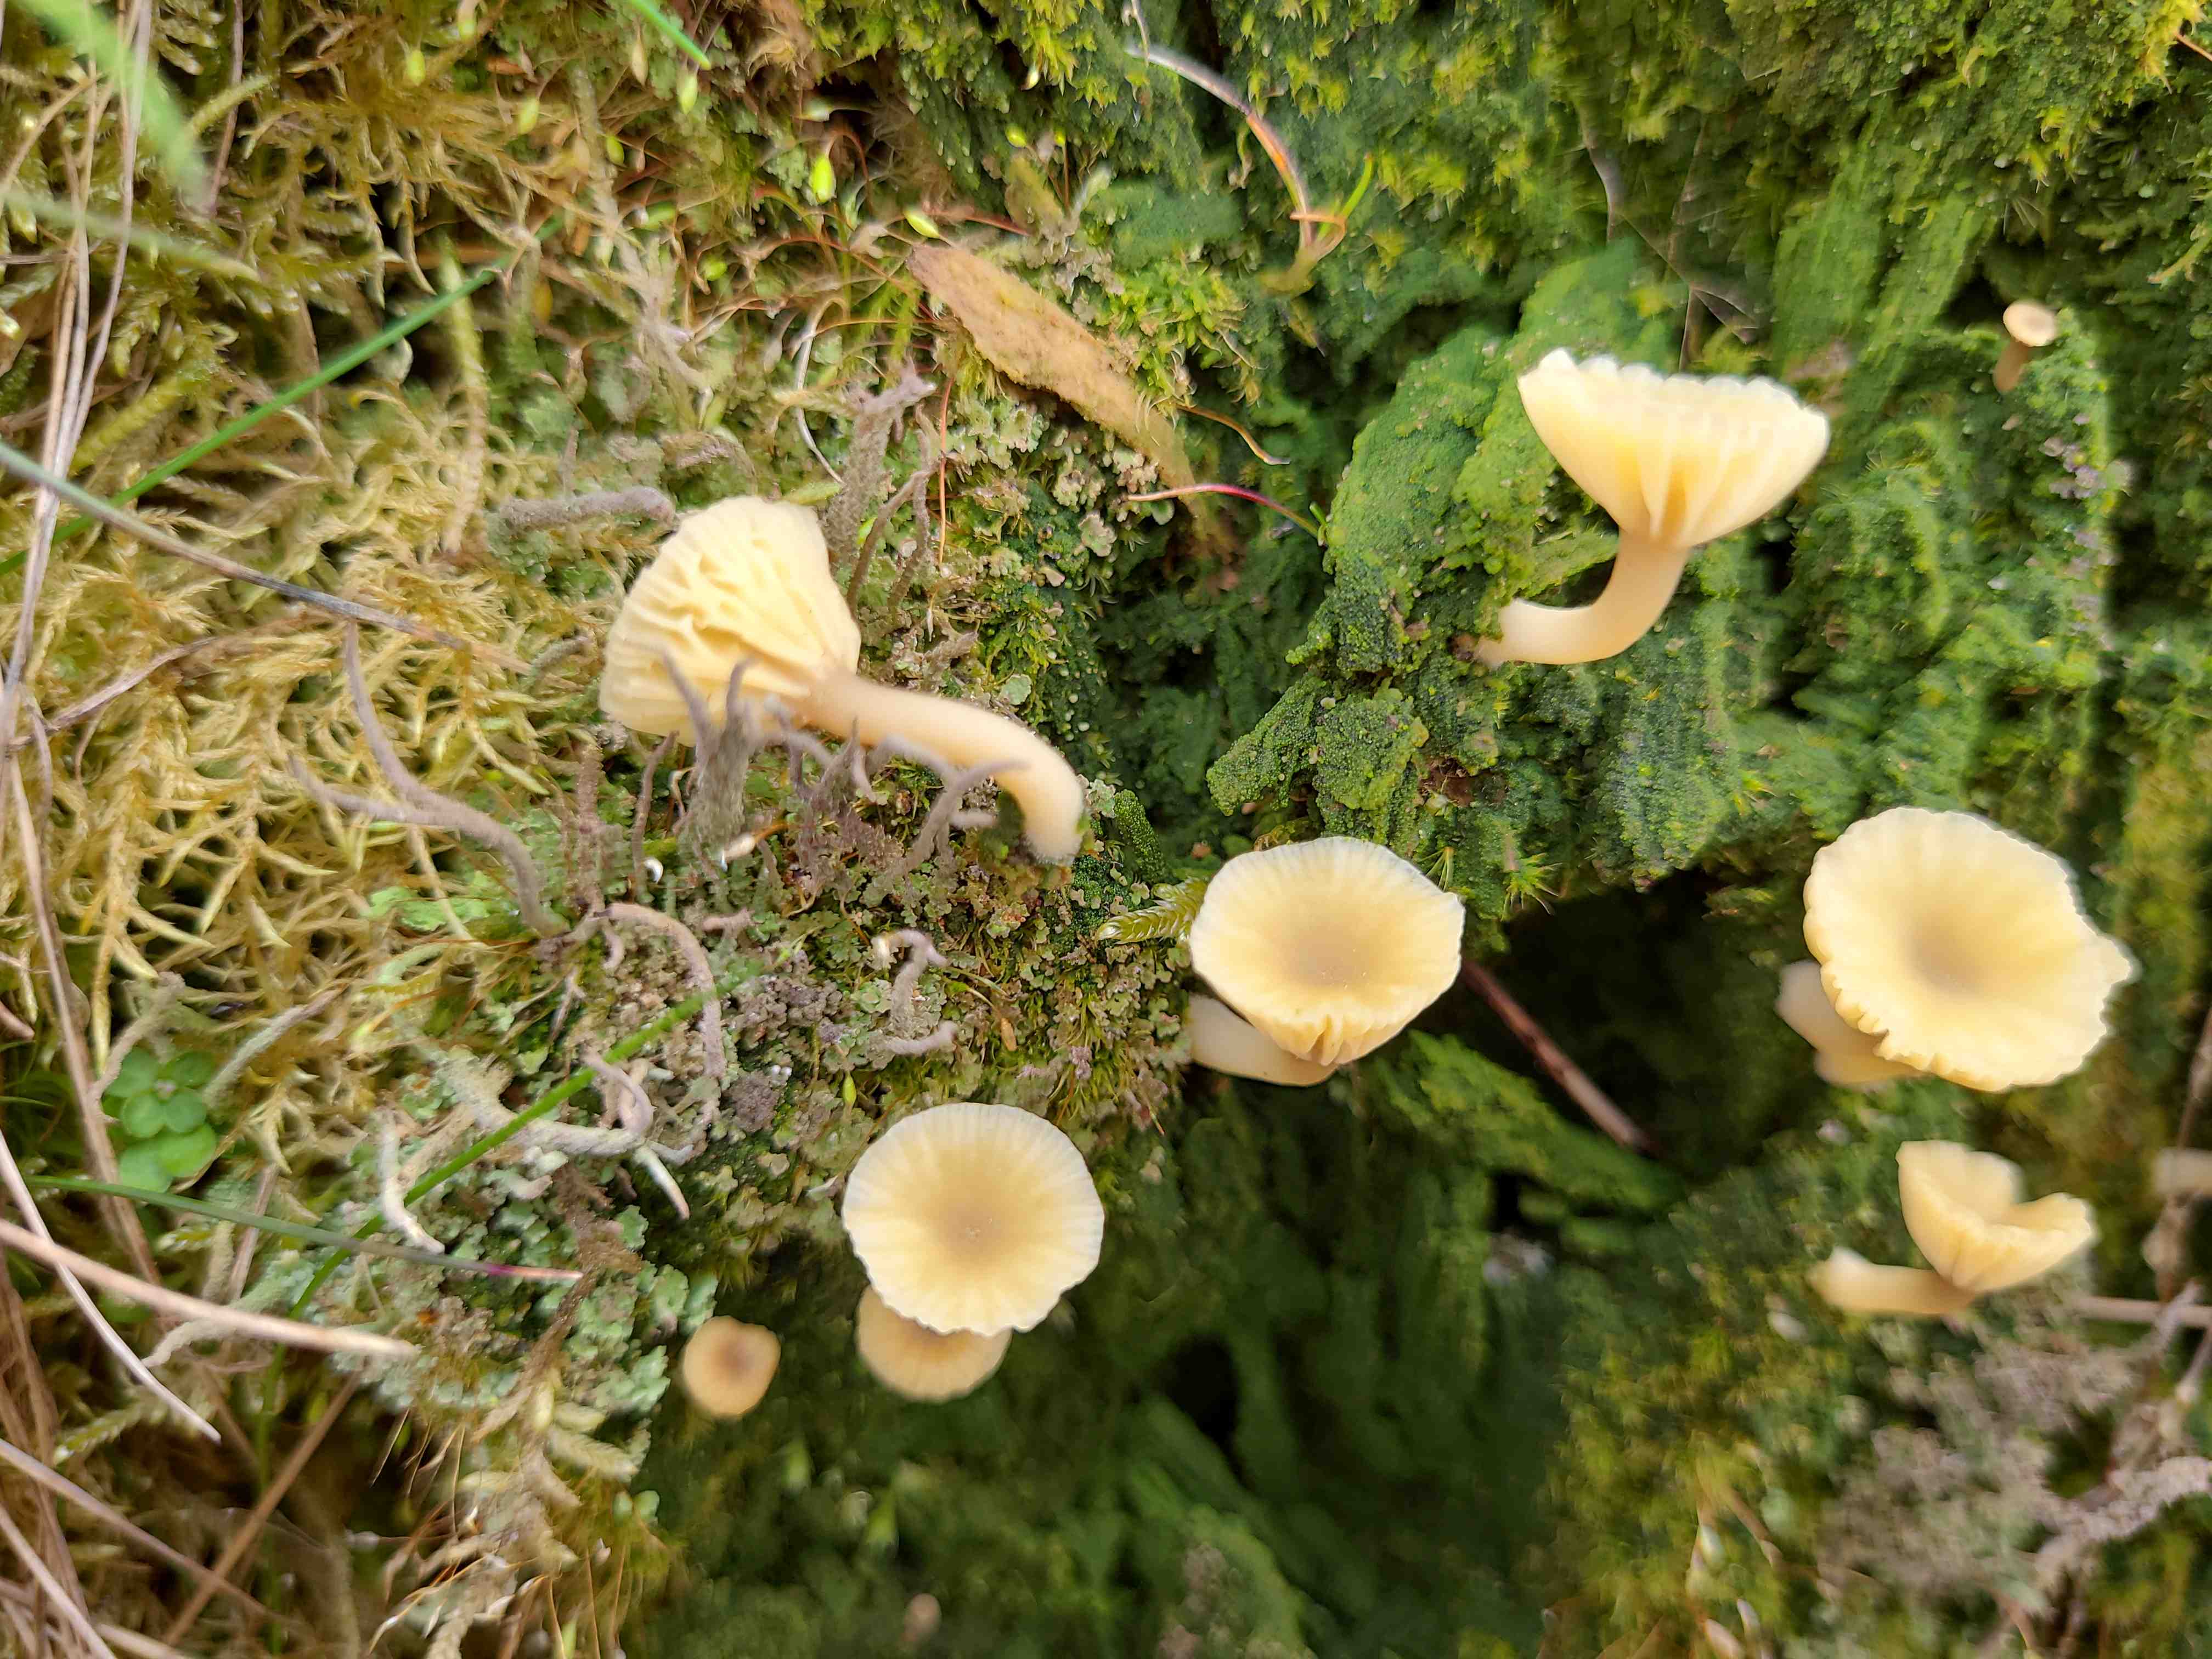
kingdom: Fungi
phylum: Basidiomycota
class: Agaricomycetes
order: Agaricales
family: Hygrophoraceae
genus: Lichenomphalia
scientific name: Lichenomphalia umbellifera
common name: tørve-lavhat
